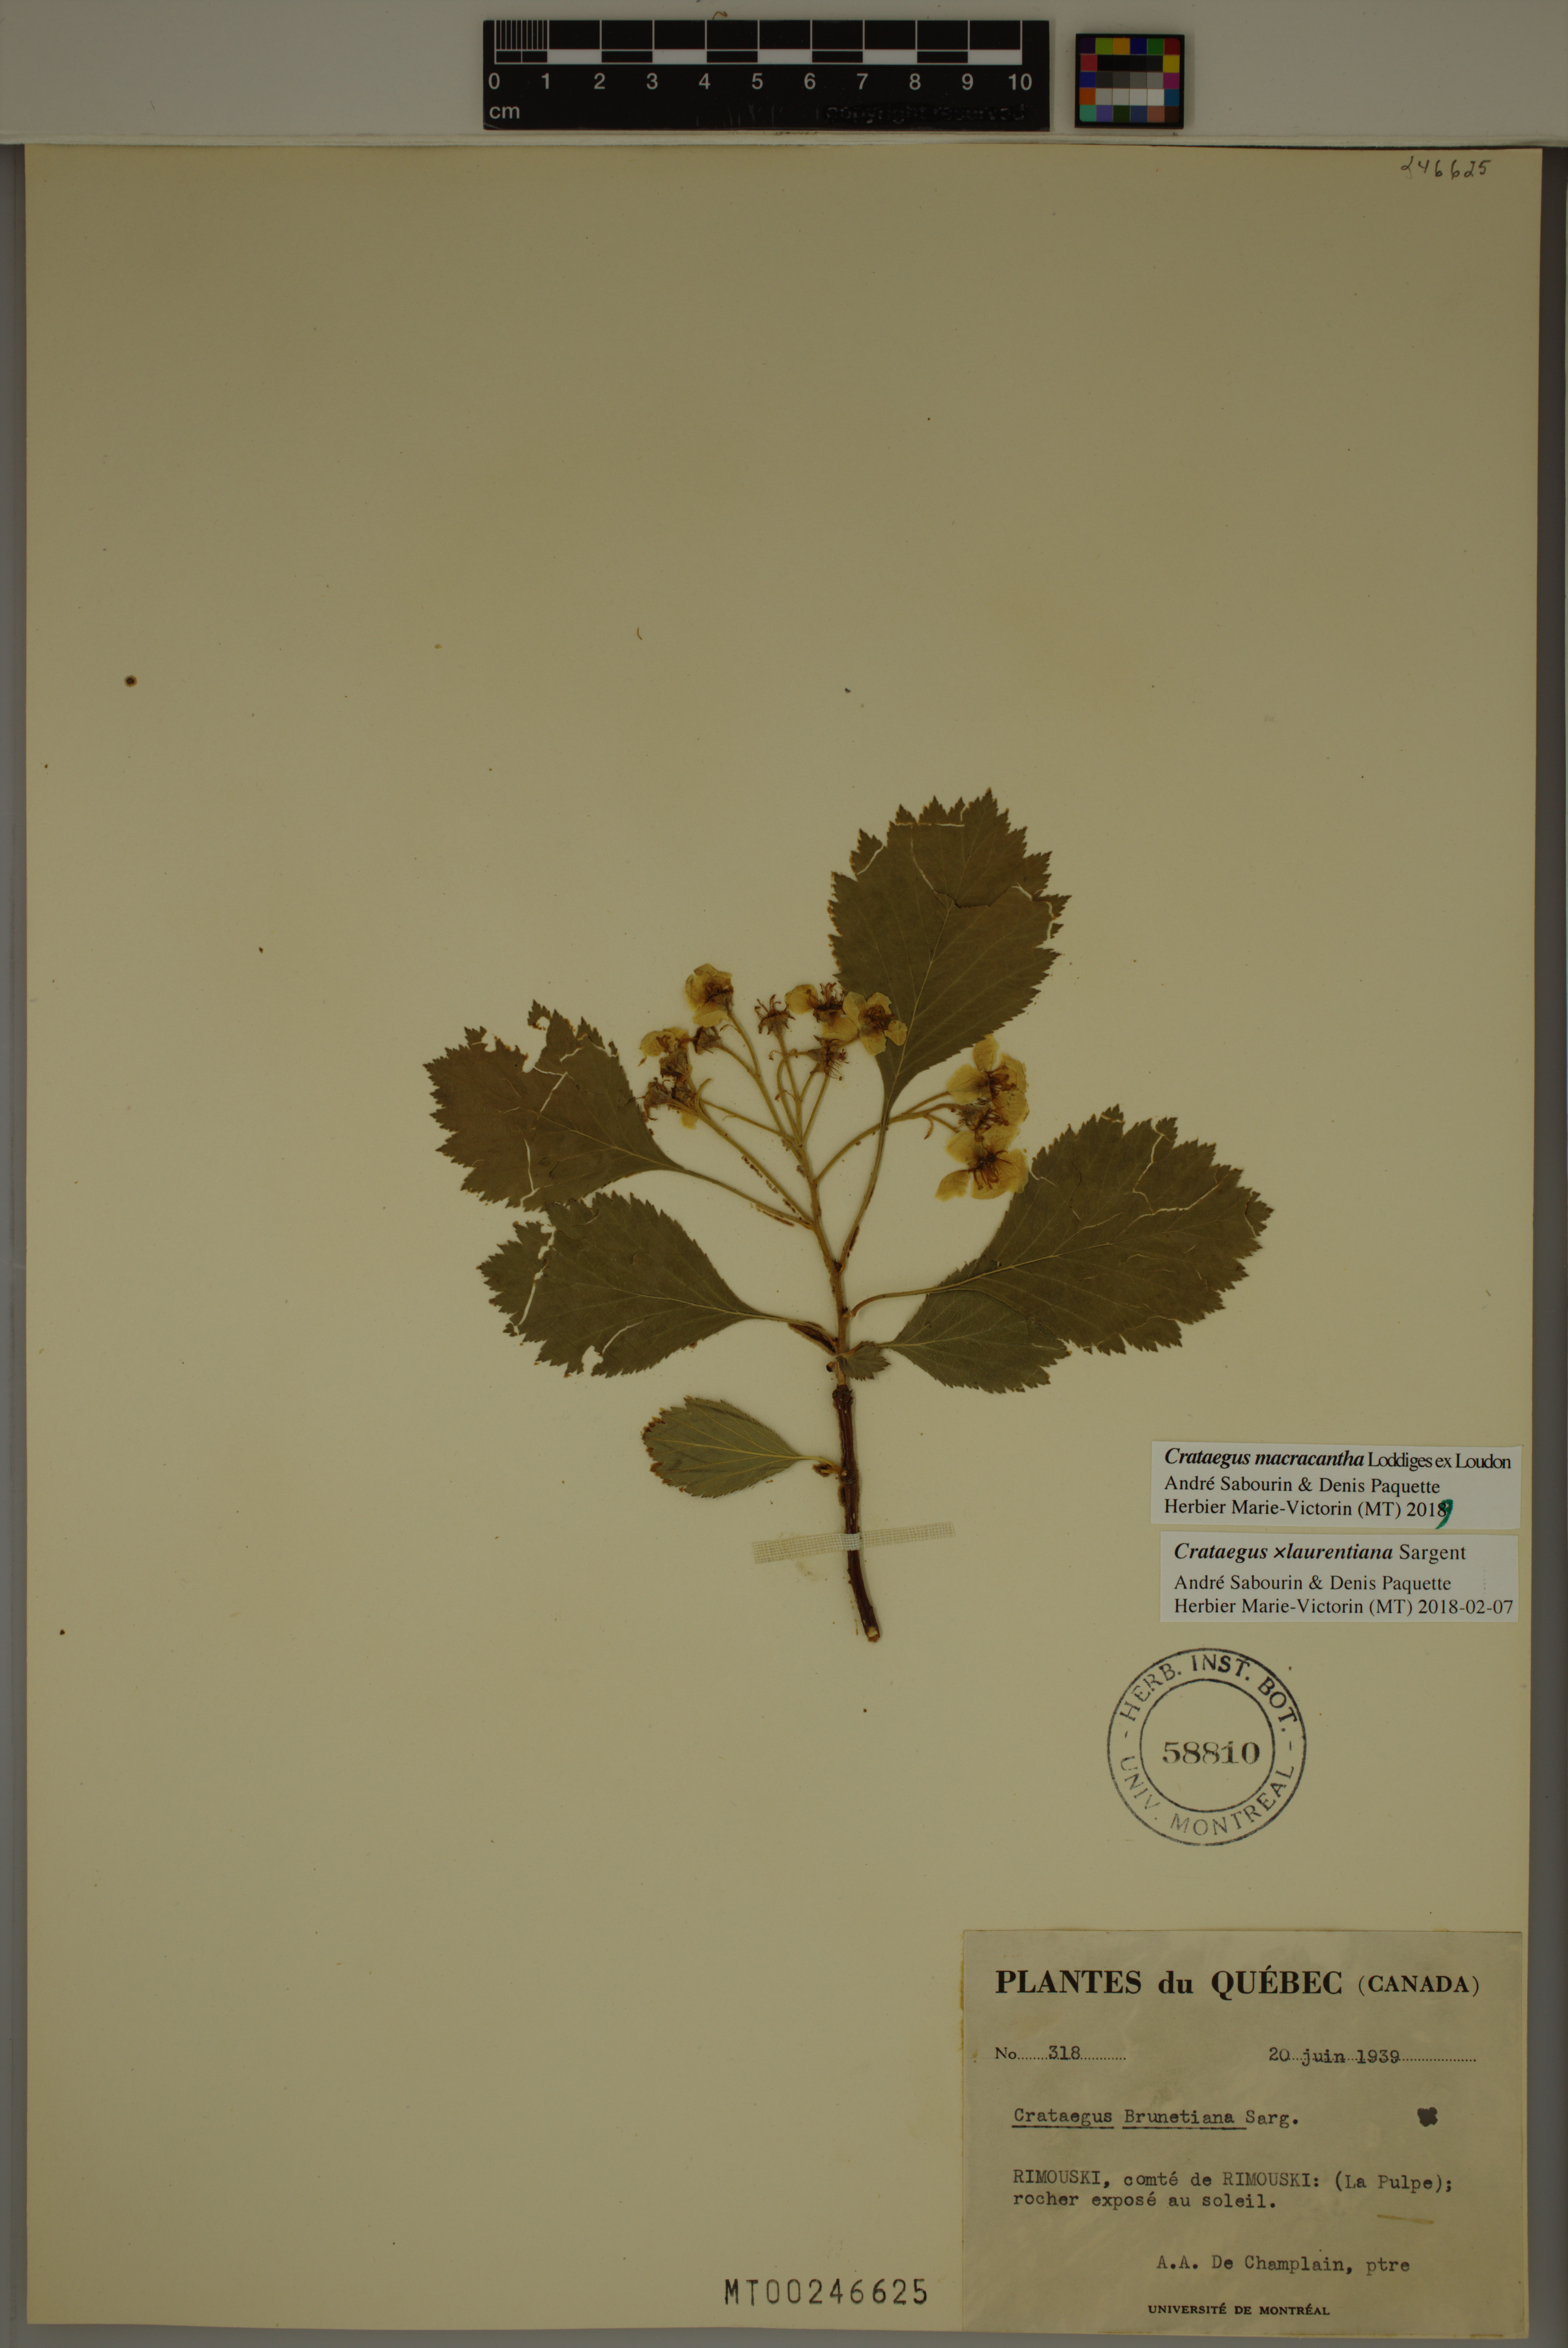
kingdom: Plantae
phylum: Tracheophyta
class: Magnoliopsida
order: Rosales
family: Rosaceae
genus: Crataegus
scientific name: Crataegus macracantha
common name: Large-thorn hawthorn
